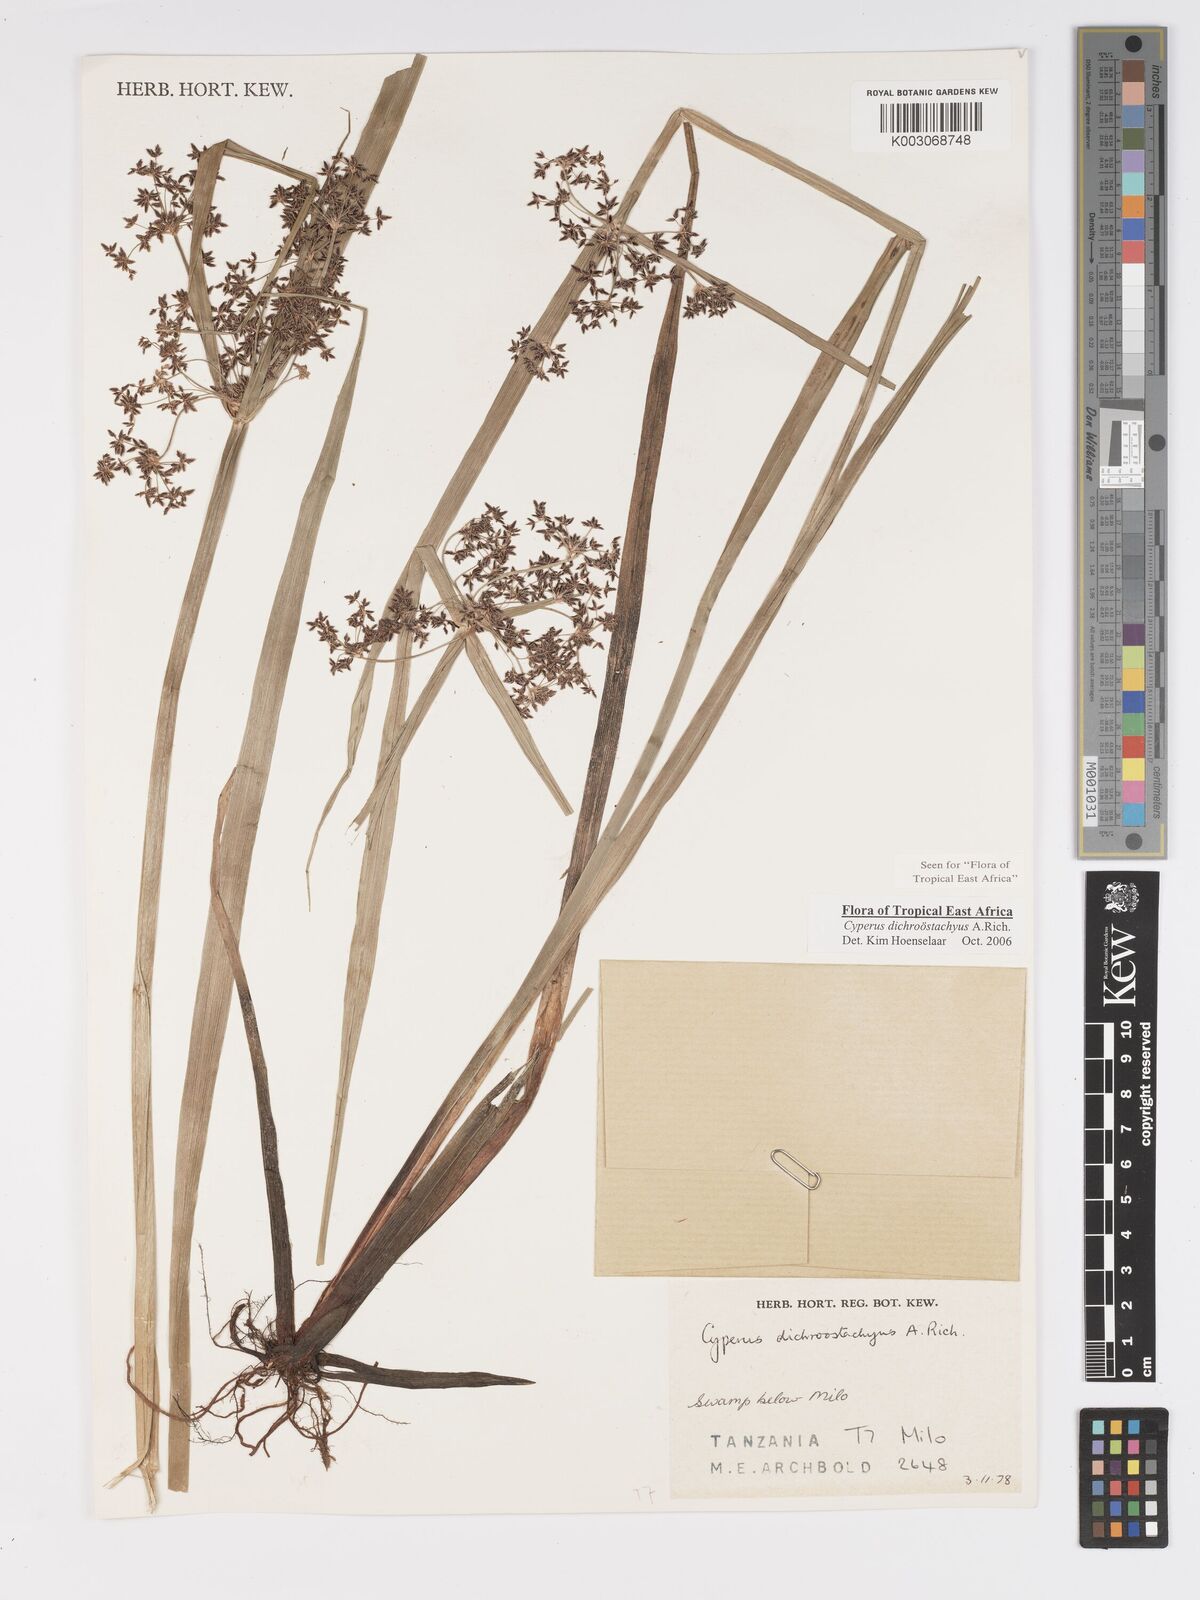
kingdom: Plantae
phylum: Tracheophyta
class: Liliopsida
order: Poales
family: Cyperaceae
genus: Cyperus
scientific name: Cyperus dichrostachyus
